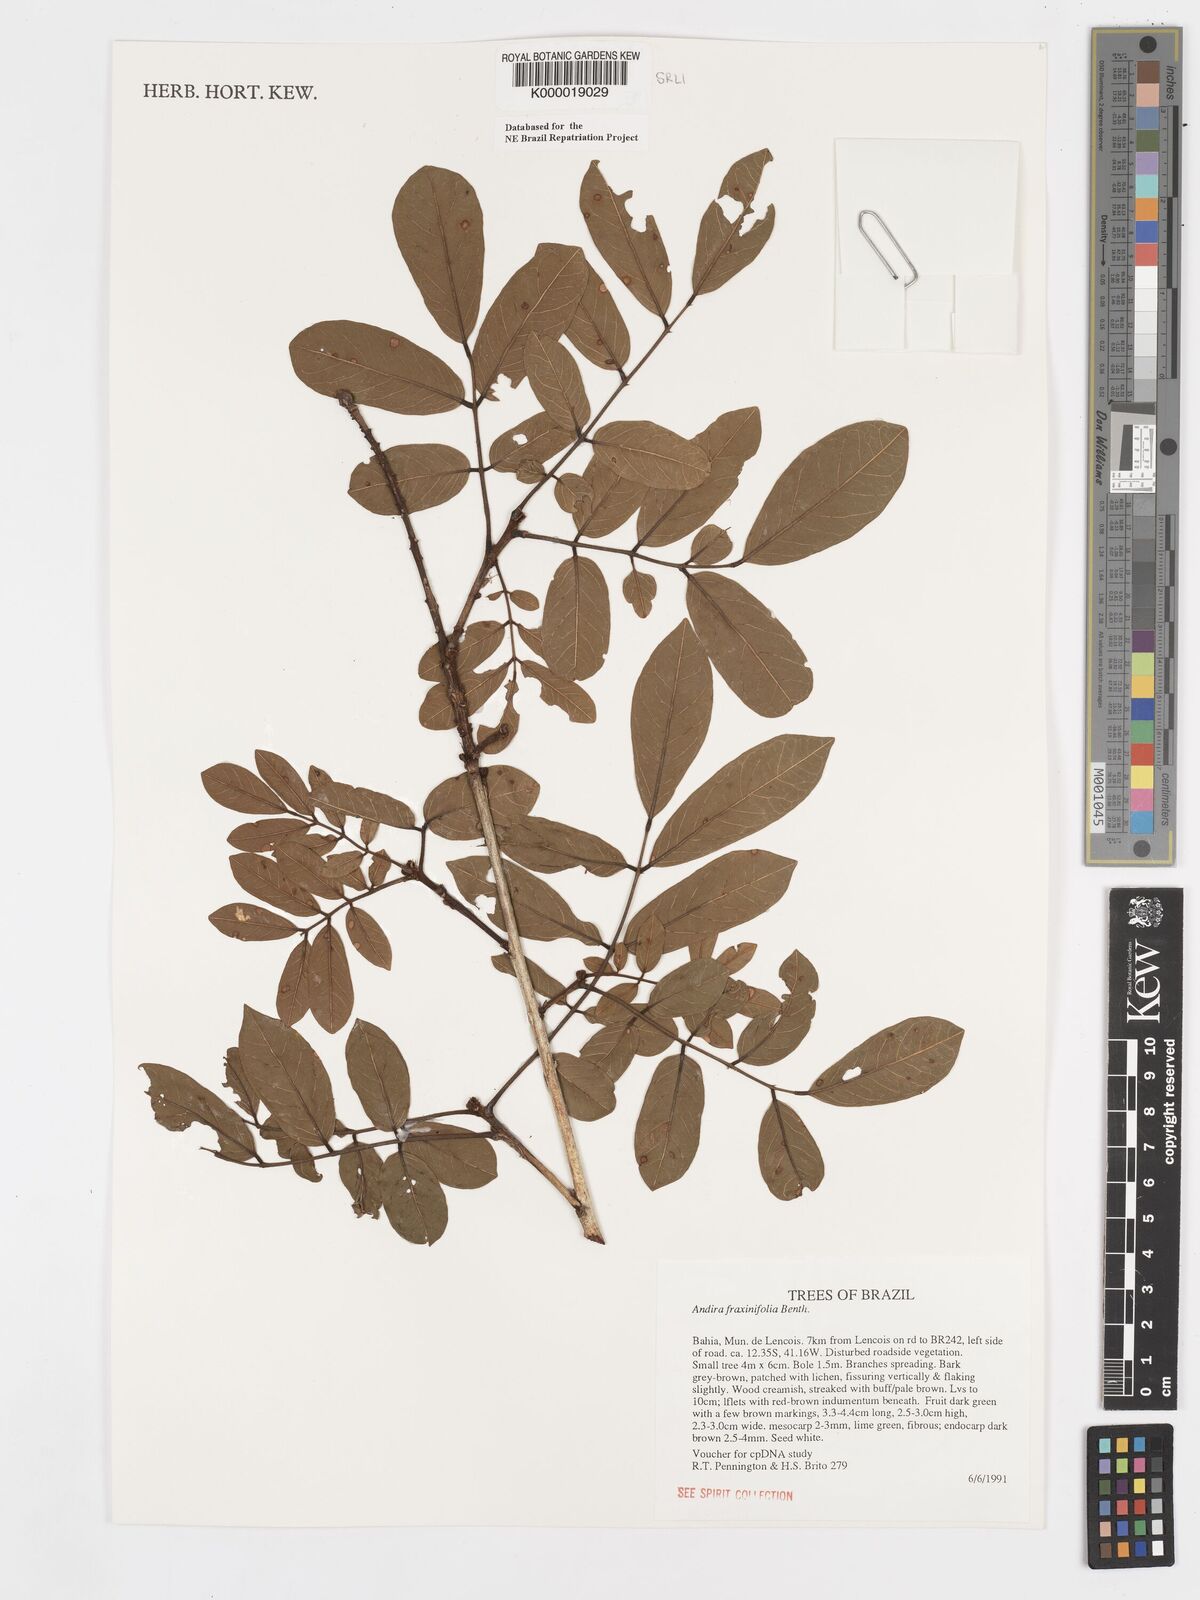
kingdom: Plantae
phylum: Tracheophyta
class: Magnoliopsida
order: Fabales
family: Fabaceae
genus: Andira
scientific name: Andira fraxinifolia
